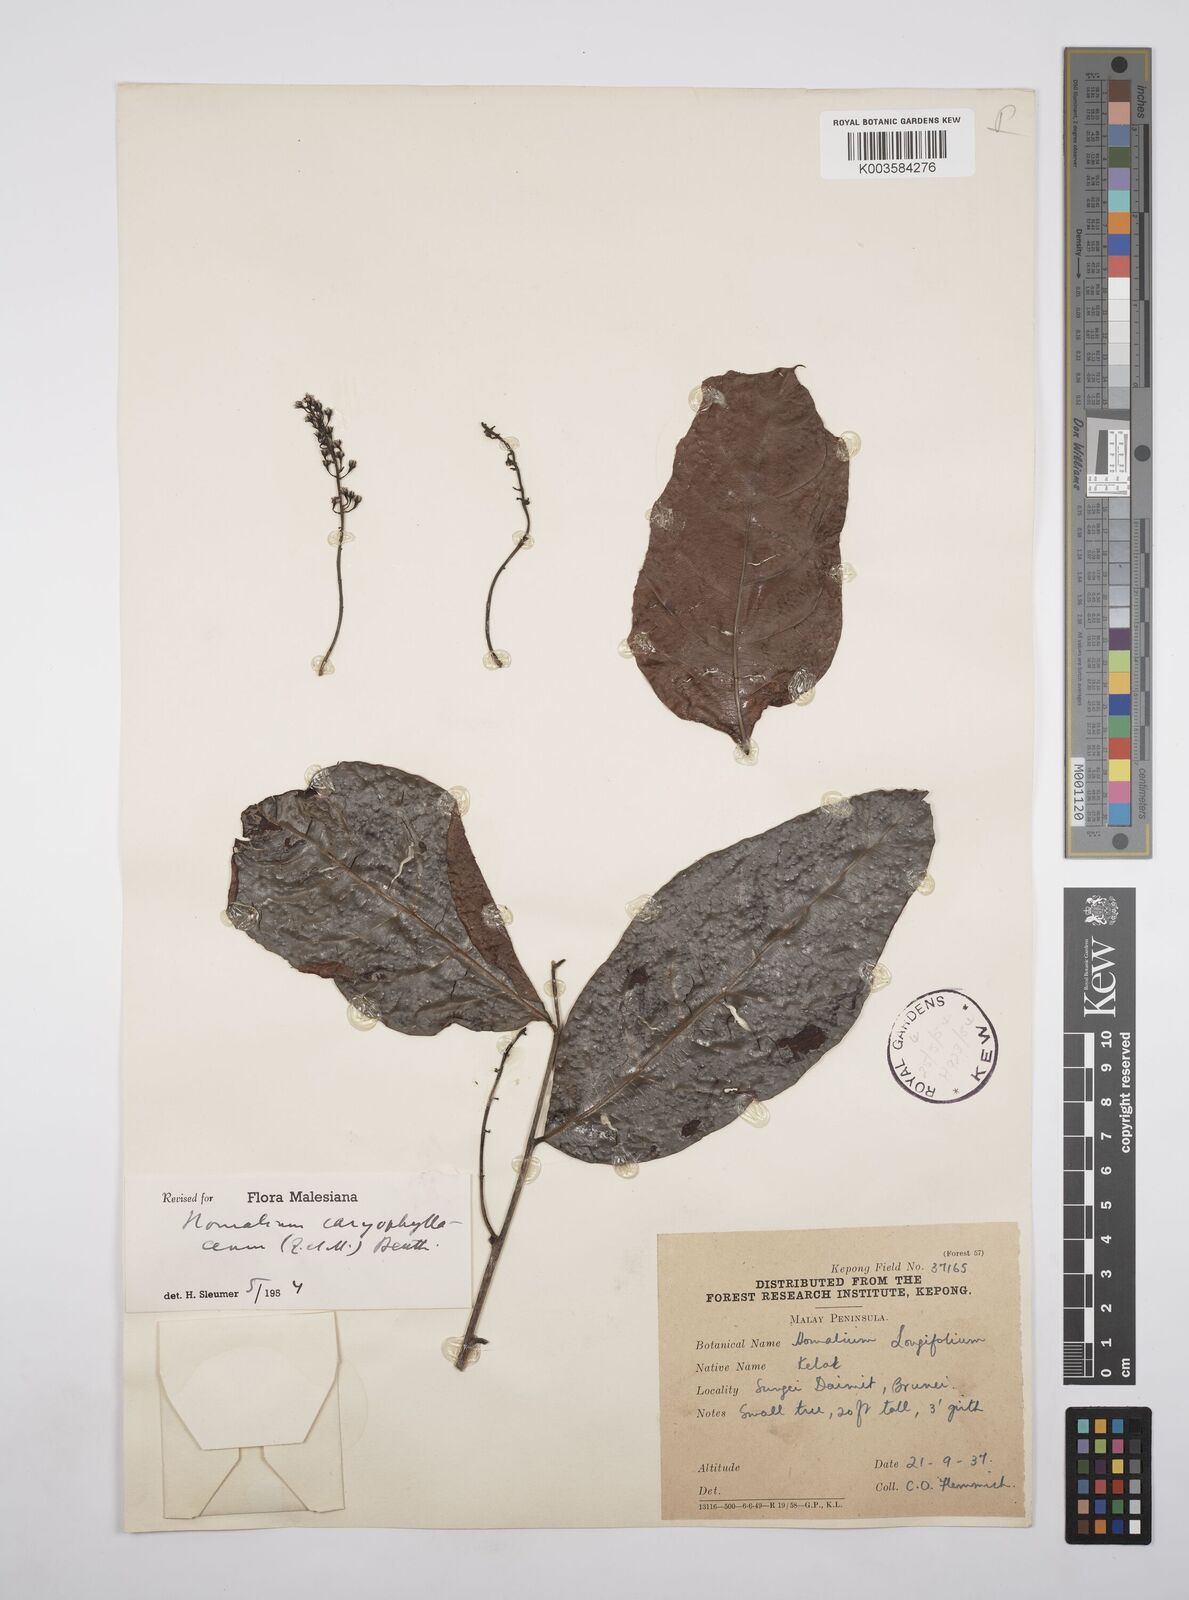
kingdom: Plantae
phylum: Tracheophyta
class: Magnoliopsida
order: Malpighiales
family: Salicaceae
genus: Homalium
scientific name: Homalium caryophyllaceum
